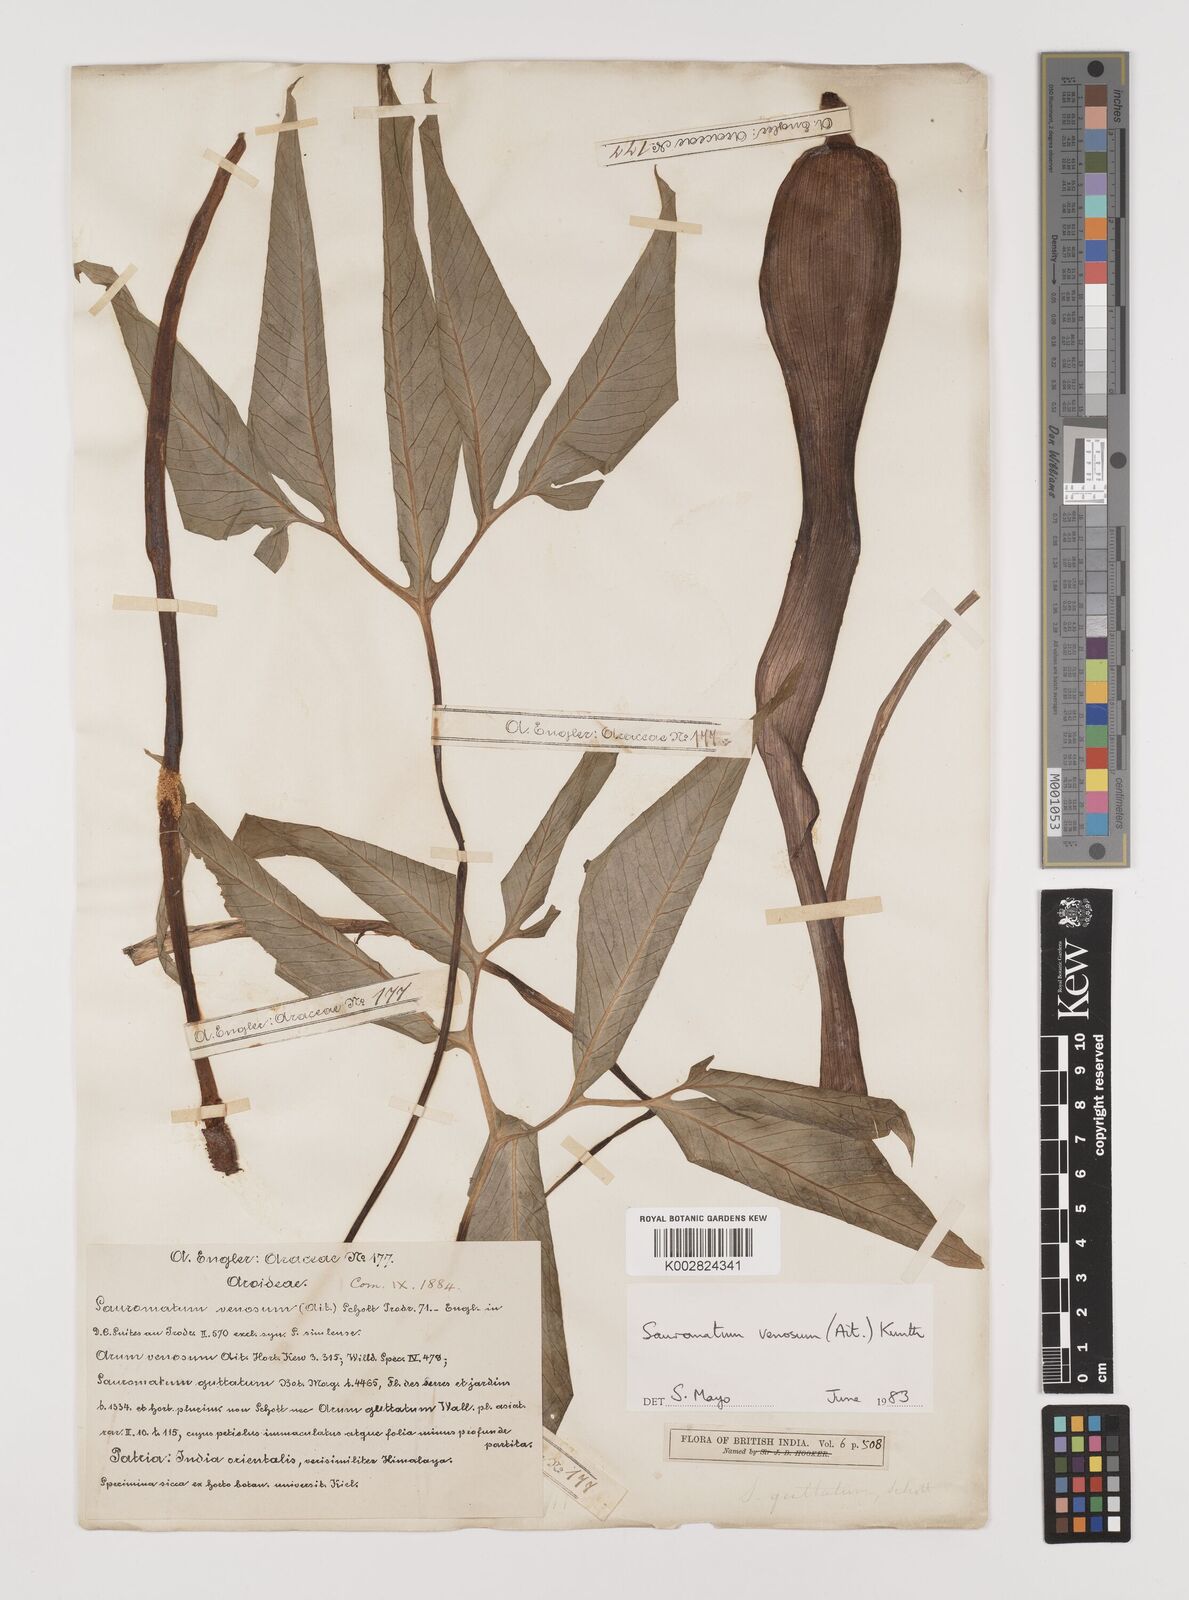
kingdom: Plantae
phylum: Tracheophyta
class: Liliopsida
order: Alismatales
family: Araceae
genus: Sauromatum
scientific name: Sauromatum venosum
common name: Voodoo lily
